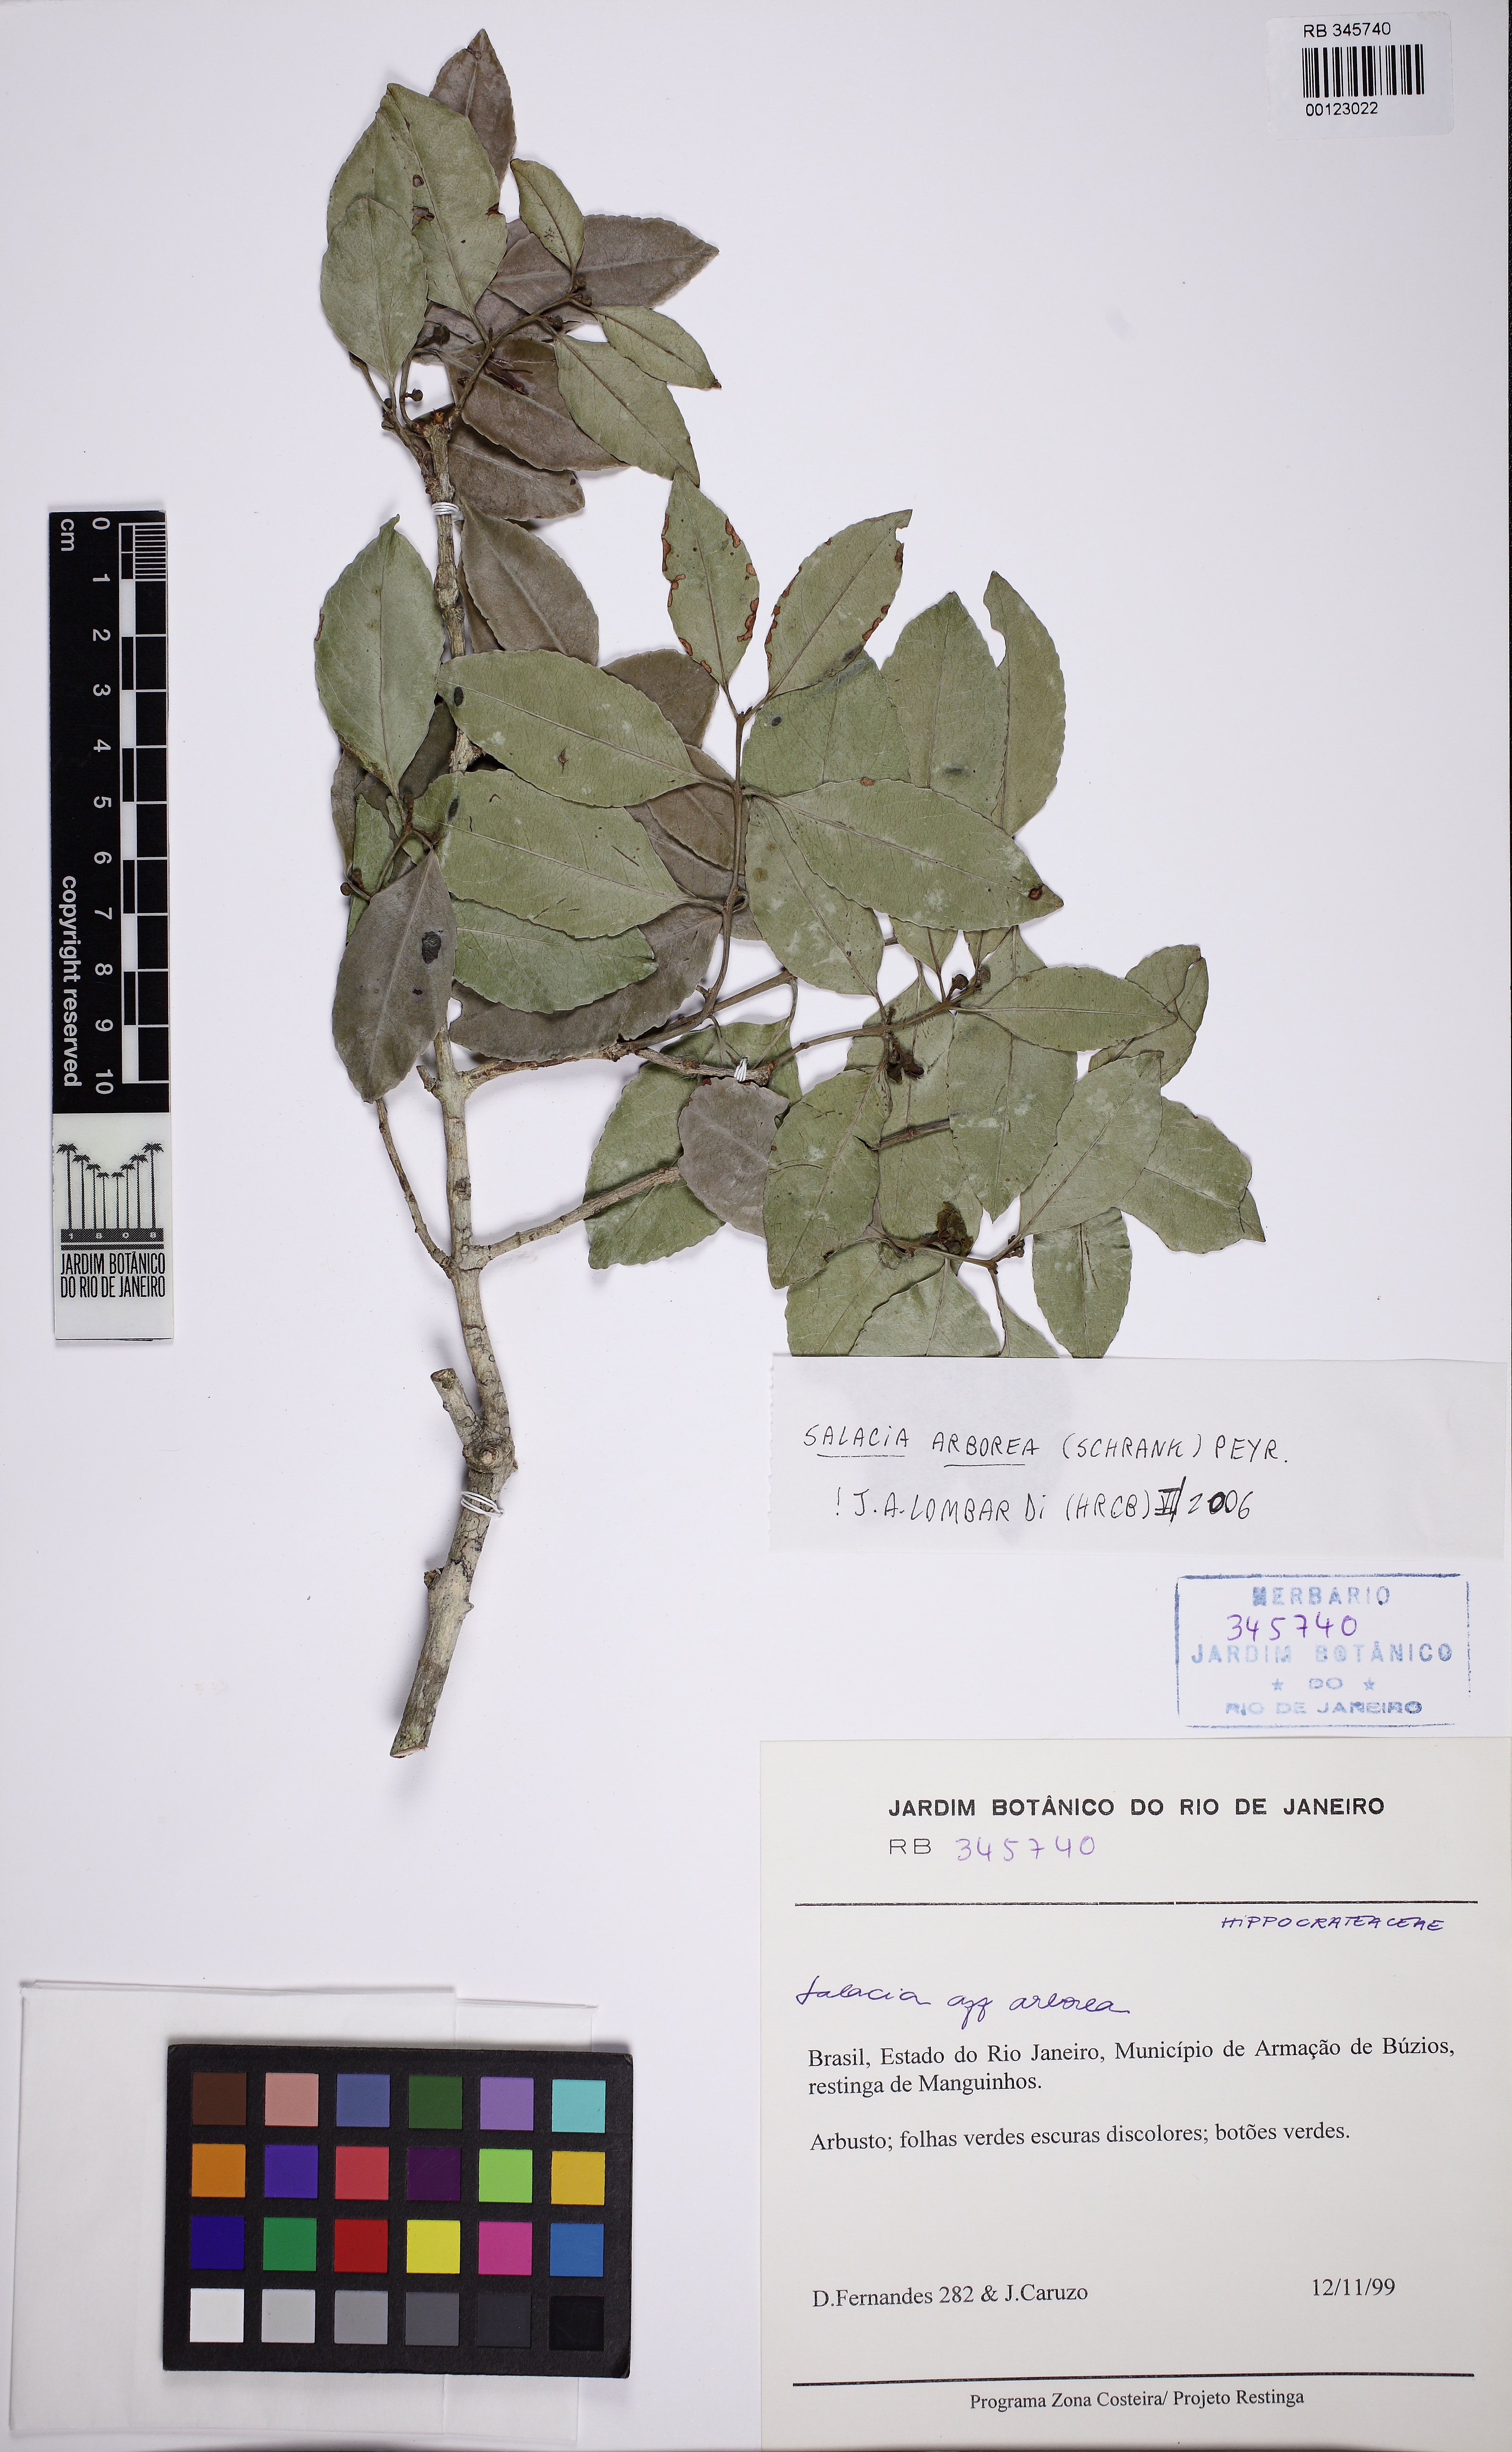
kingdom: Plantae
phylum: Tracheophyta
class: Magnoliopsida
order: Celastrales
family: Celastraceae
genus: Salacia
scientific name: Salacia arborea
